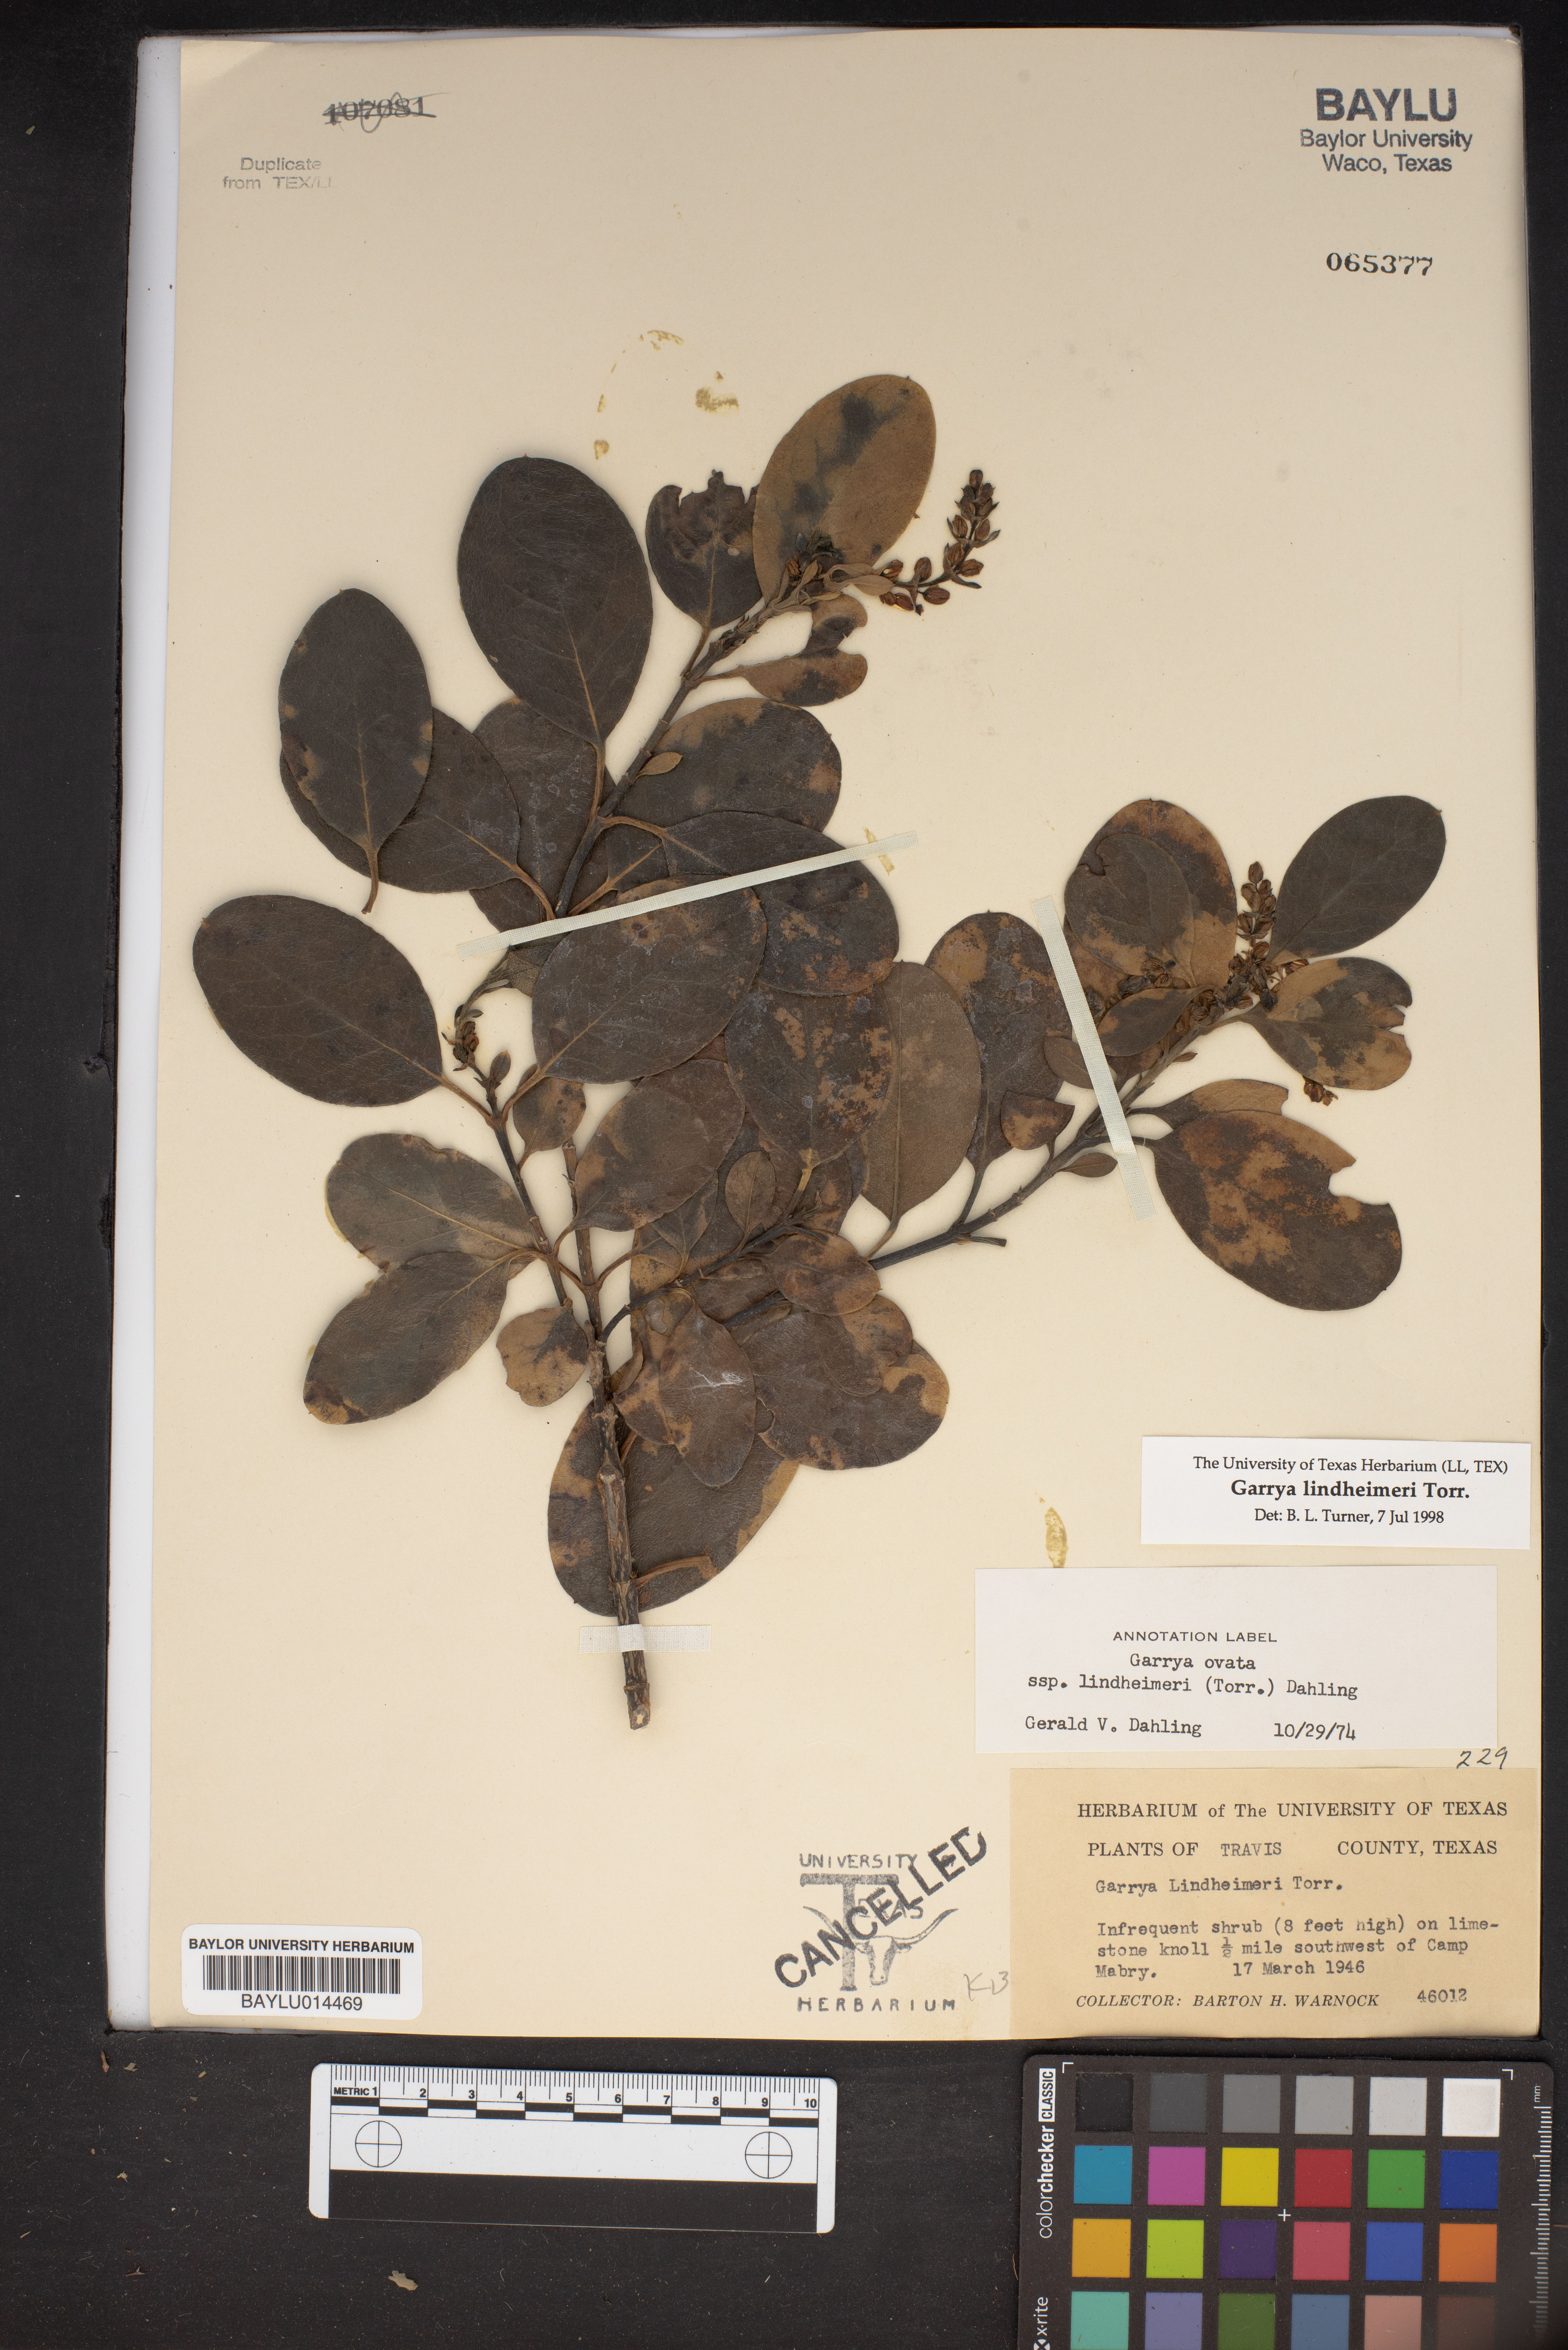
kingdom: Plantae
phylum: Tracheophyta
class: Magnoliopsida
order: Garryales
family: Garryaceae
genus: Garrya
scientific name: Garrya lindheimeri
